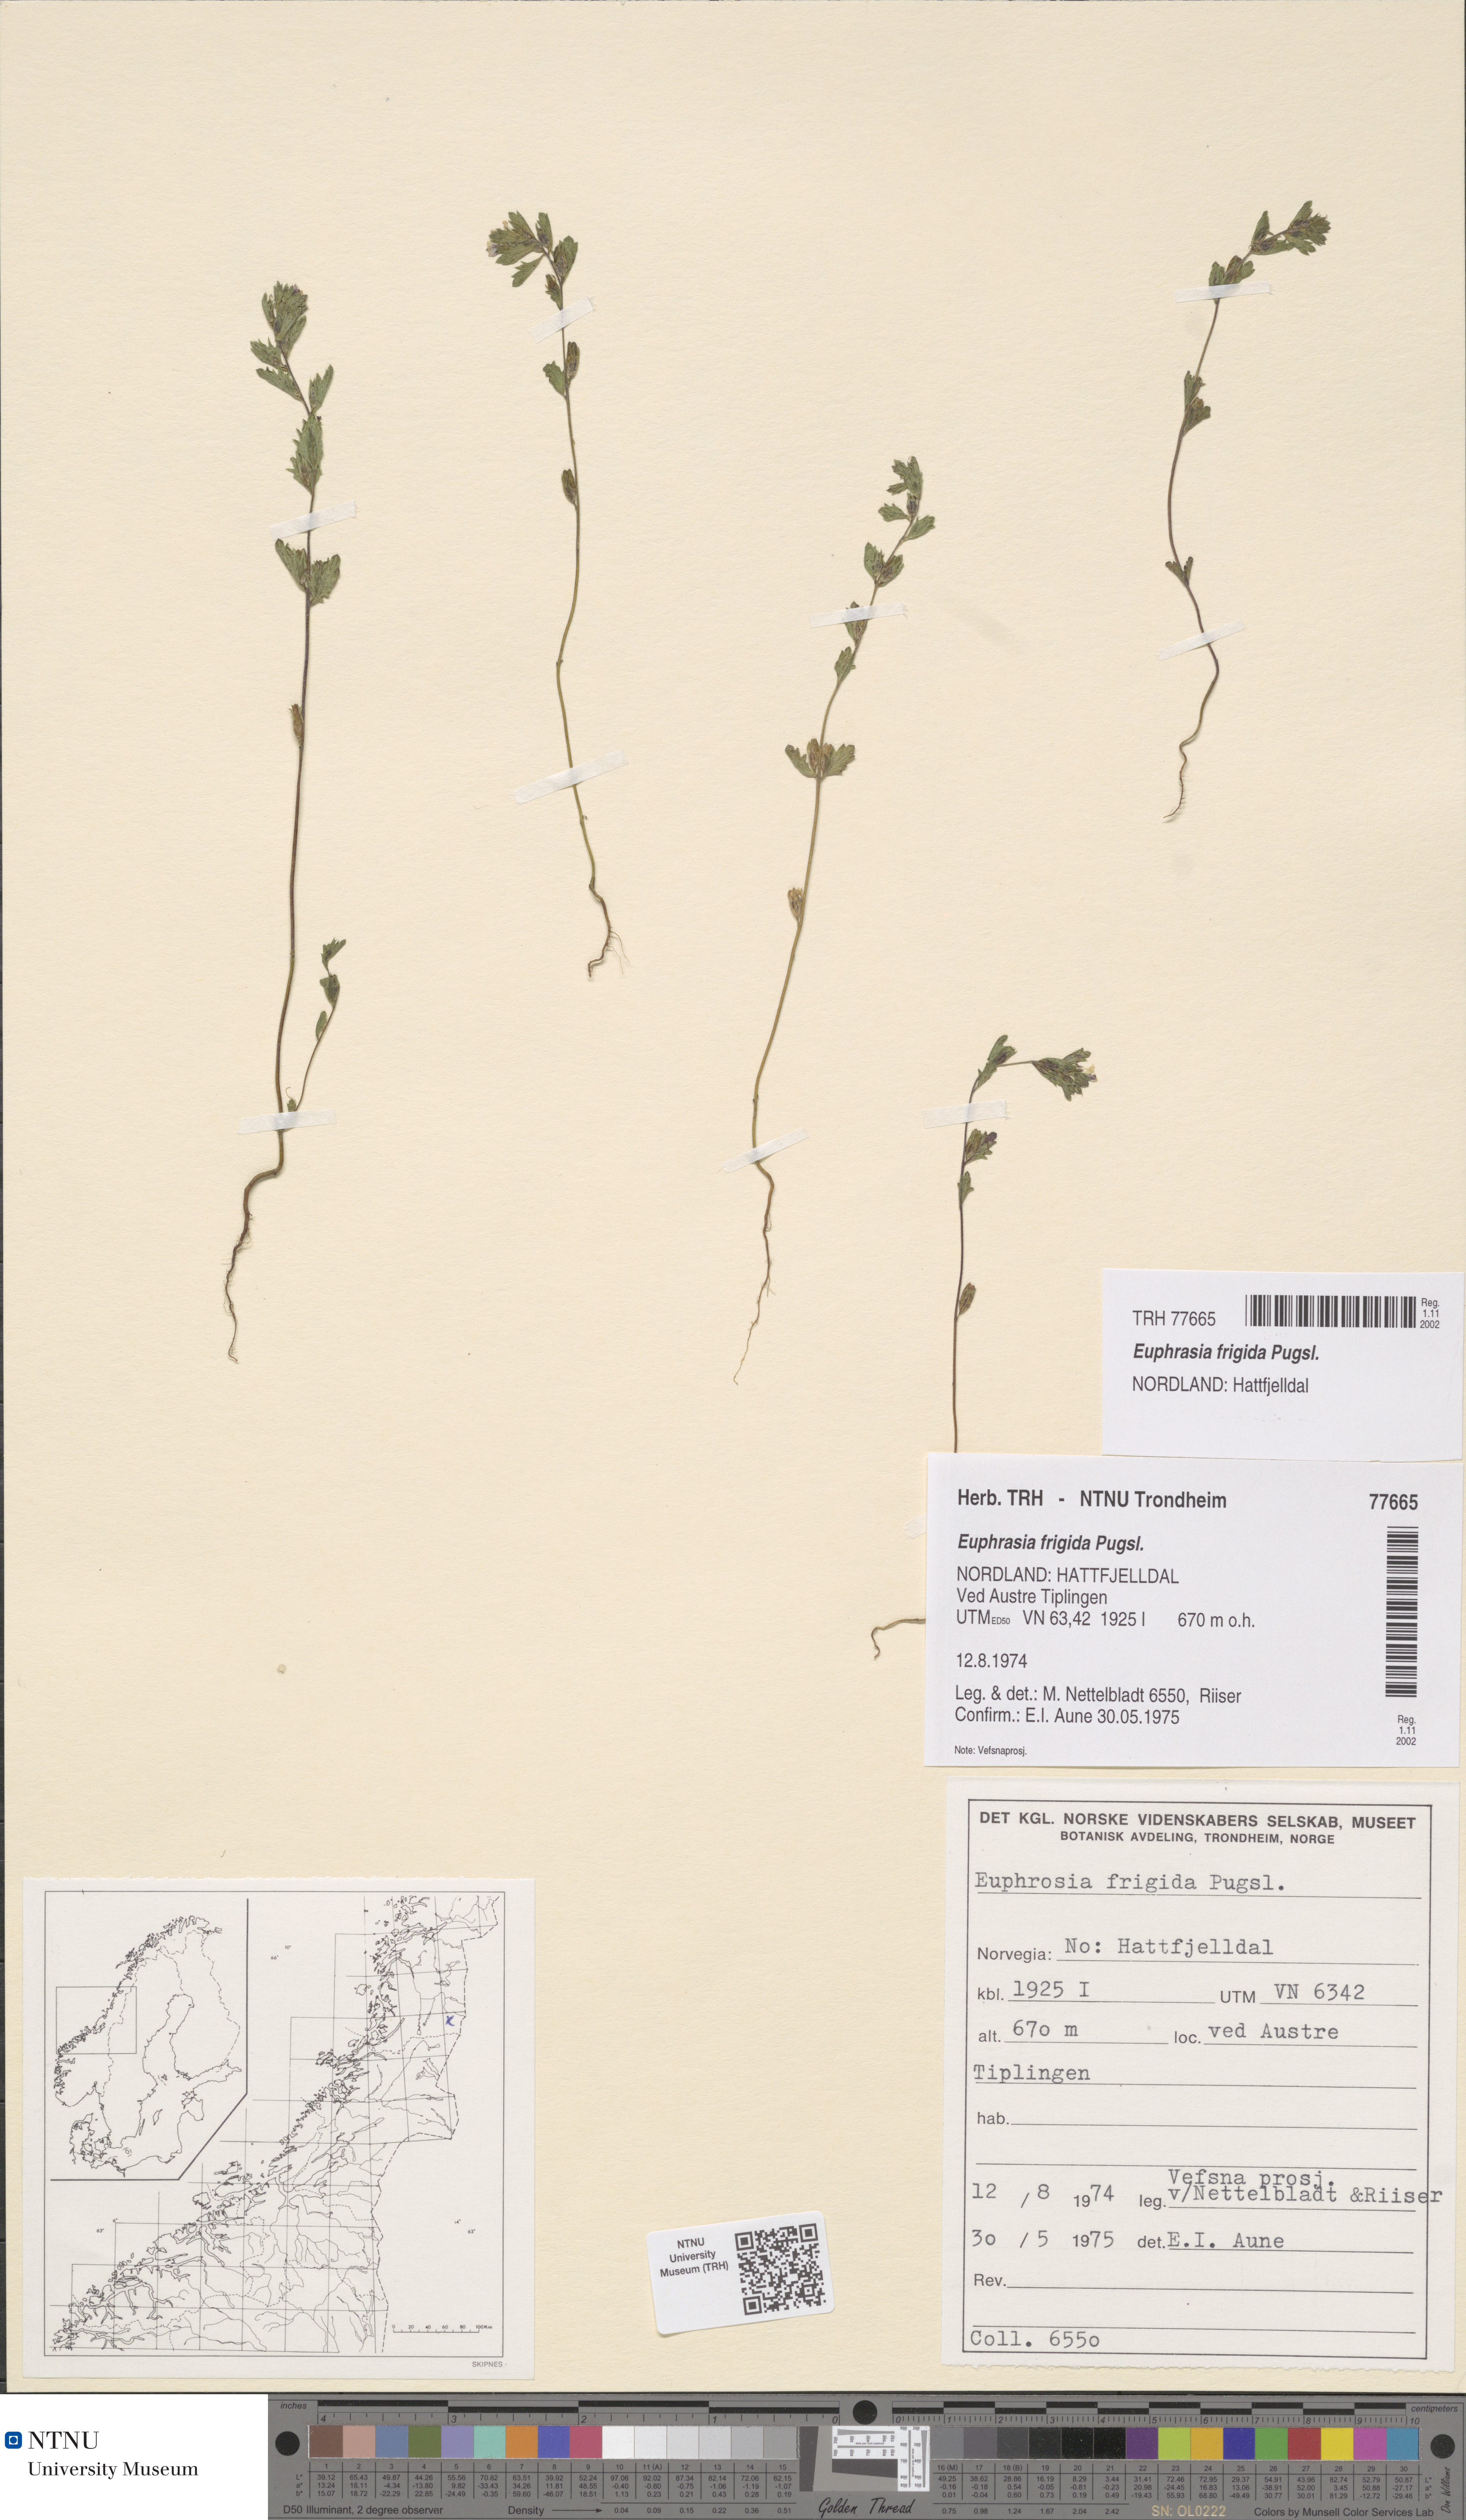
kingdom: Plantae
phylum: Tracheophyta
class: Magnoliopsida
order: Lamiales
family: Orobanchaceae
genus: Euphrasia
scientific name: Euphrasia wettsteinii
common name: Wettstein's eyebright
